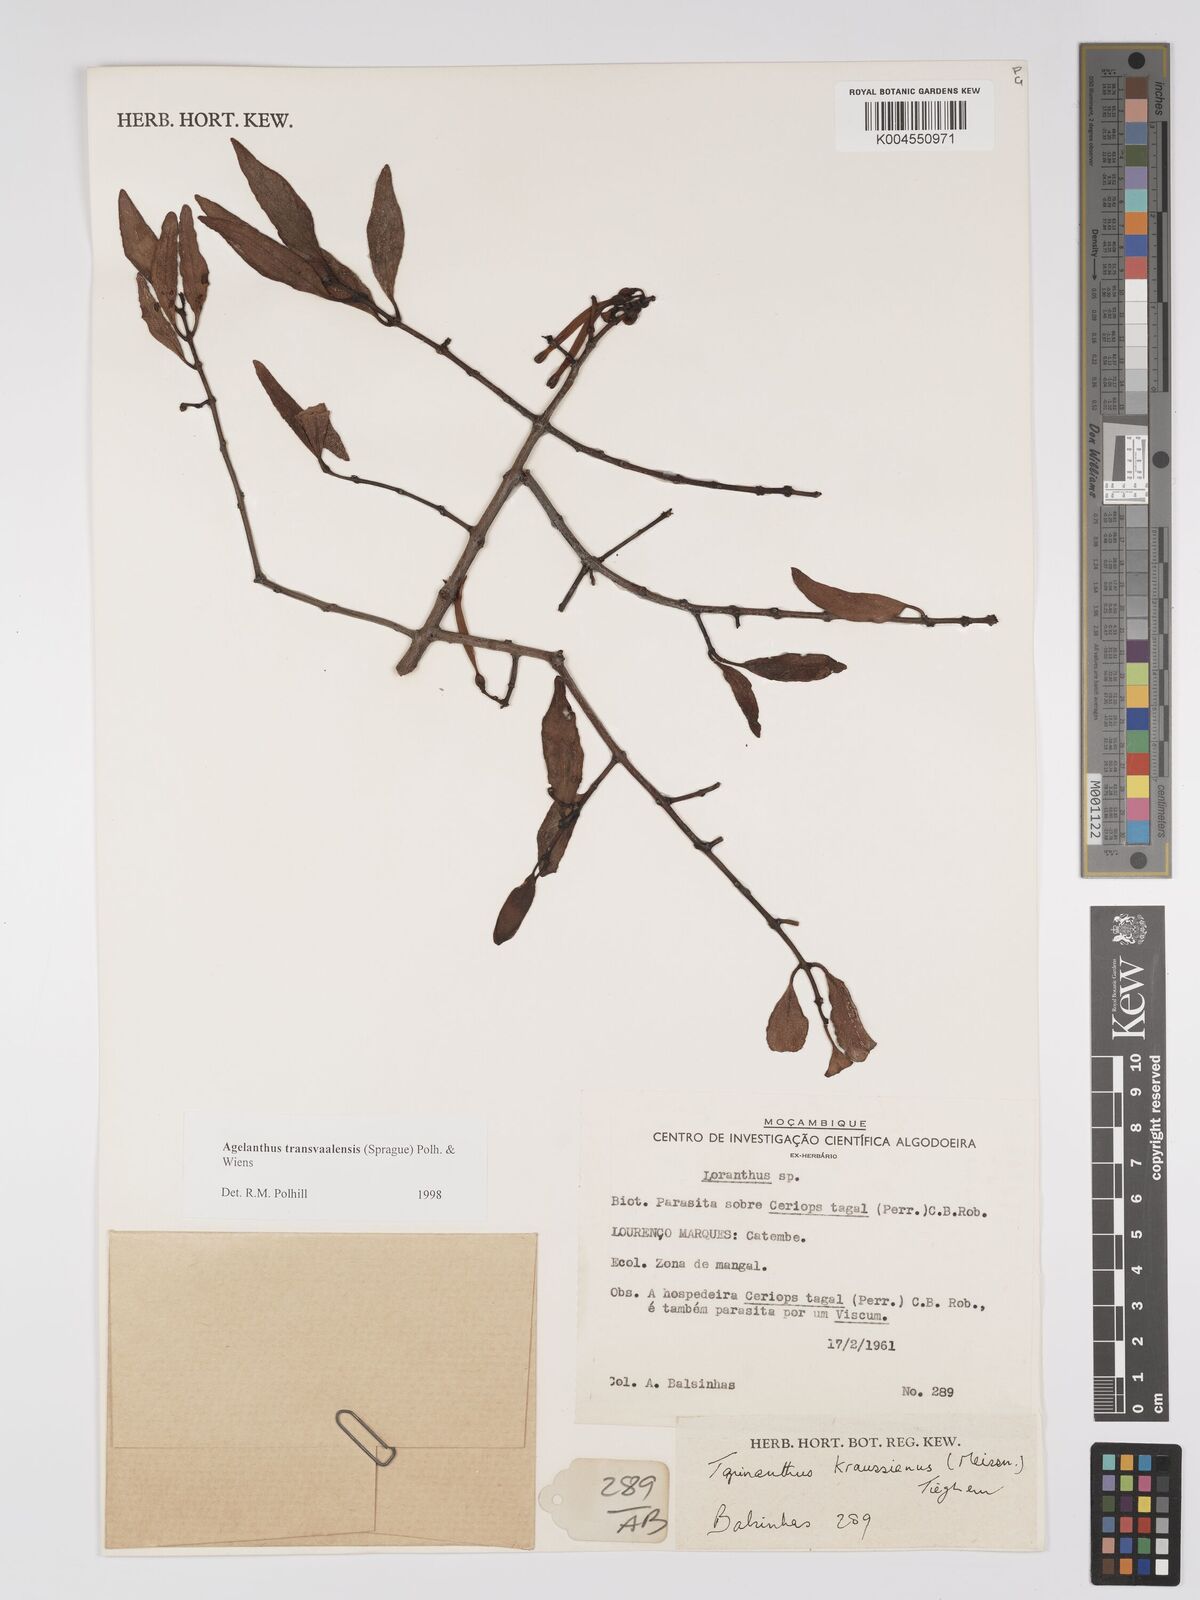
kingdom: Plantae
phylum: Tracheophyta
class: Magnoliopsida
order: Santalales
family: Loranthaceae
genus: Agelanthus
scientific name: Agelanthus transvaalensis
